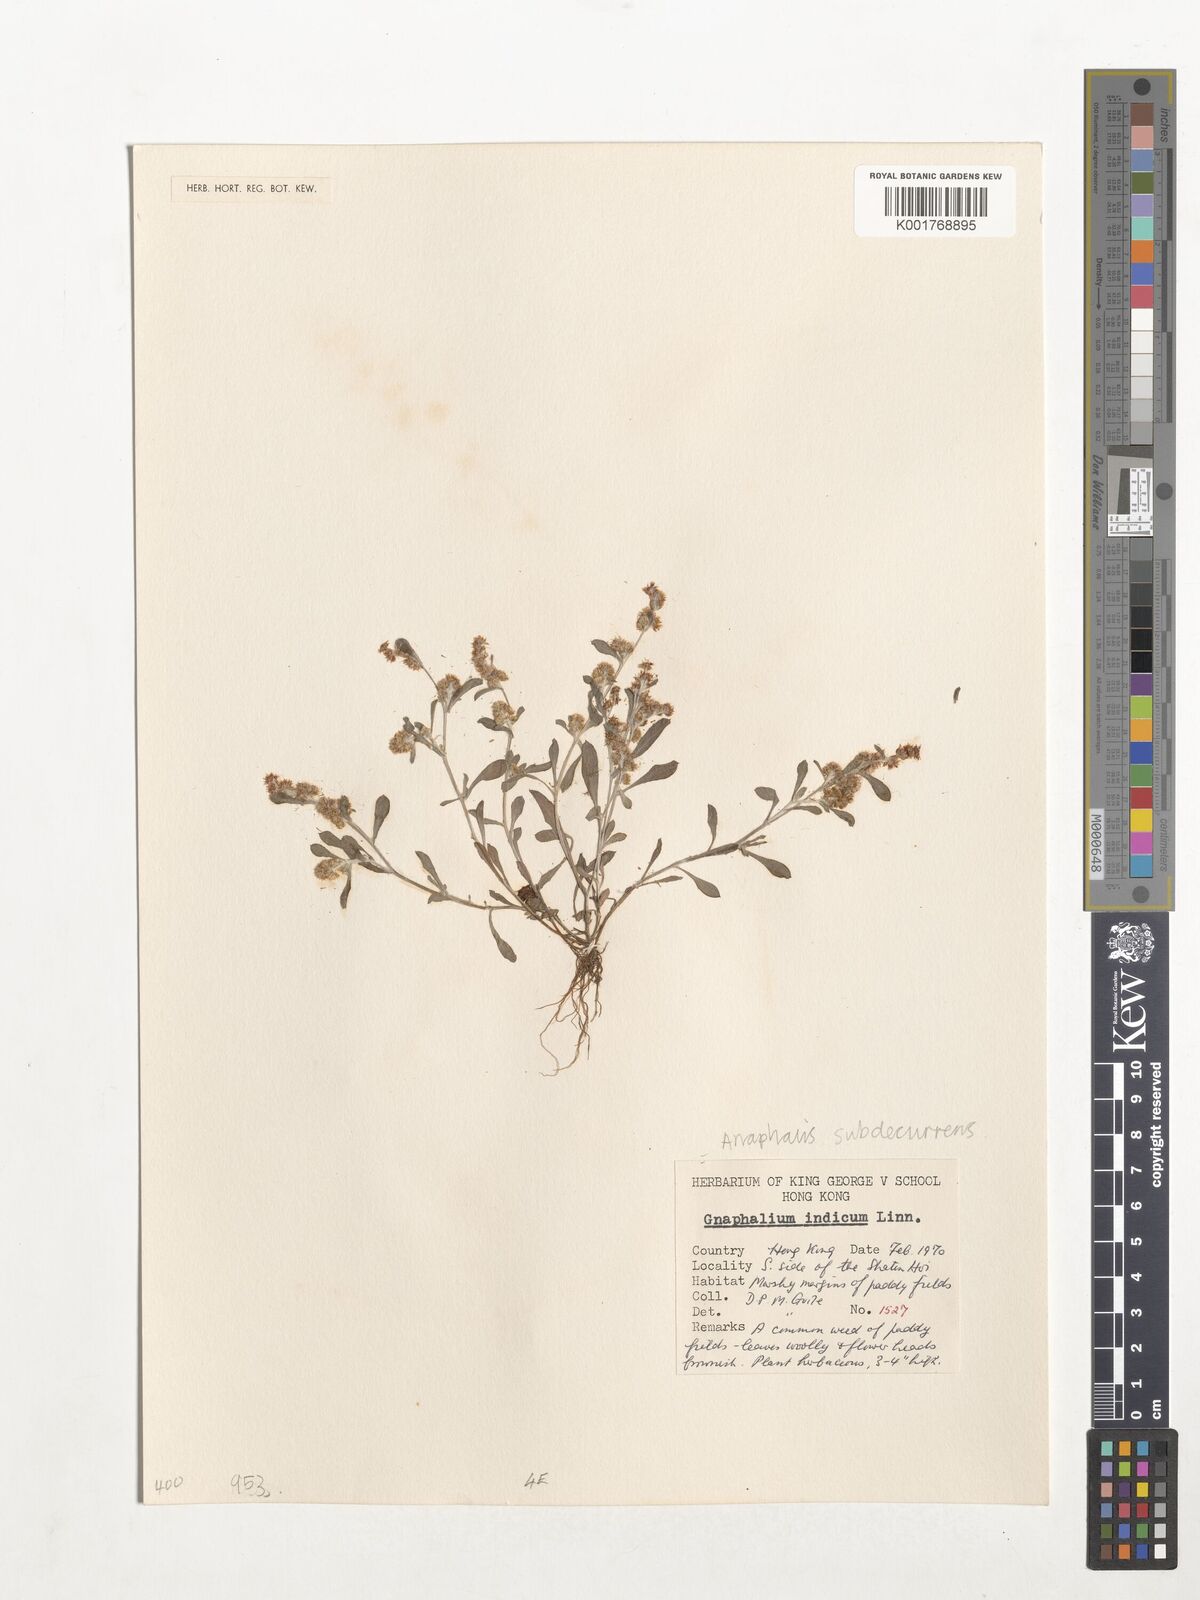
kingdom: Plantae
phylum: Tracheophyta
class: Magnoliopsida
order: Asterales
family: Asteraceae
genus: Helichrysum
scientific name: Helichrysum indicum
